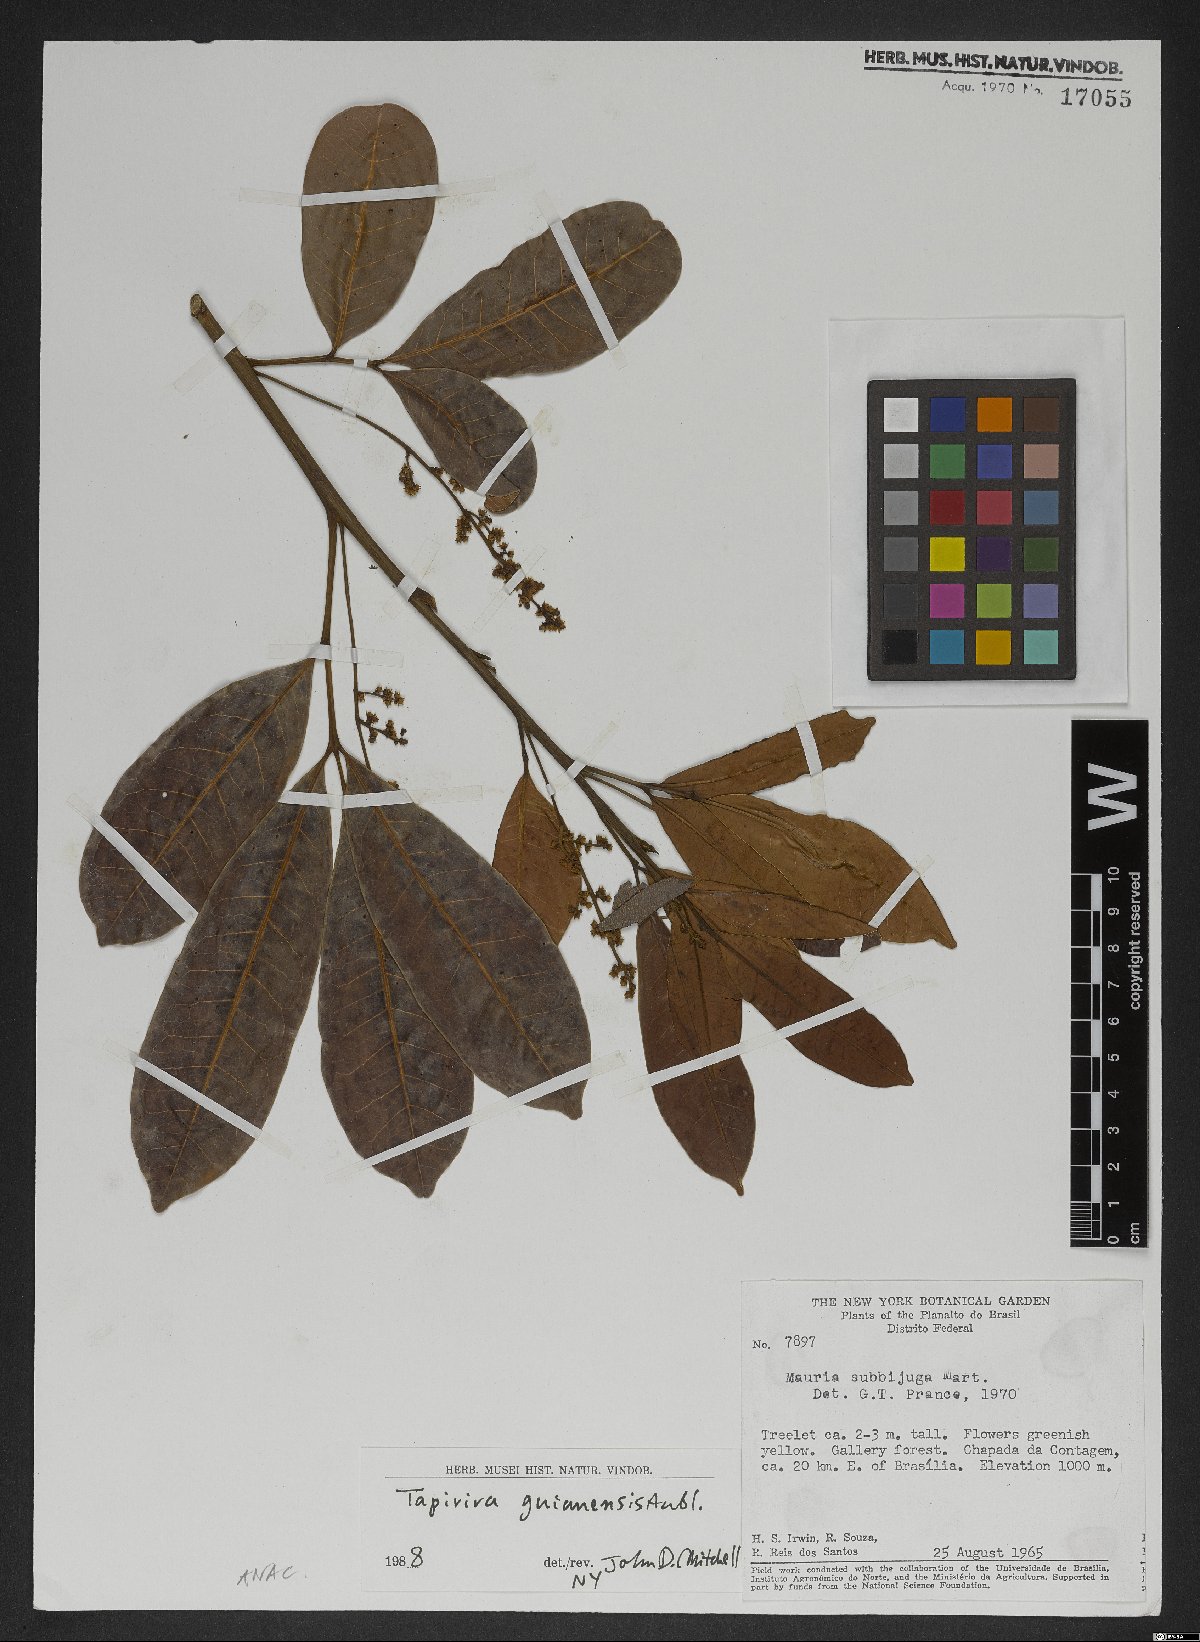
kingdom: Plantae
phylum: Tracheophyta
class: Magnoliopsida
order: Sapindales
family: Anacardiaceae
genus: Tapirira
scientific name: Tapirira guianensis
